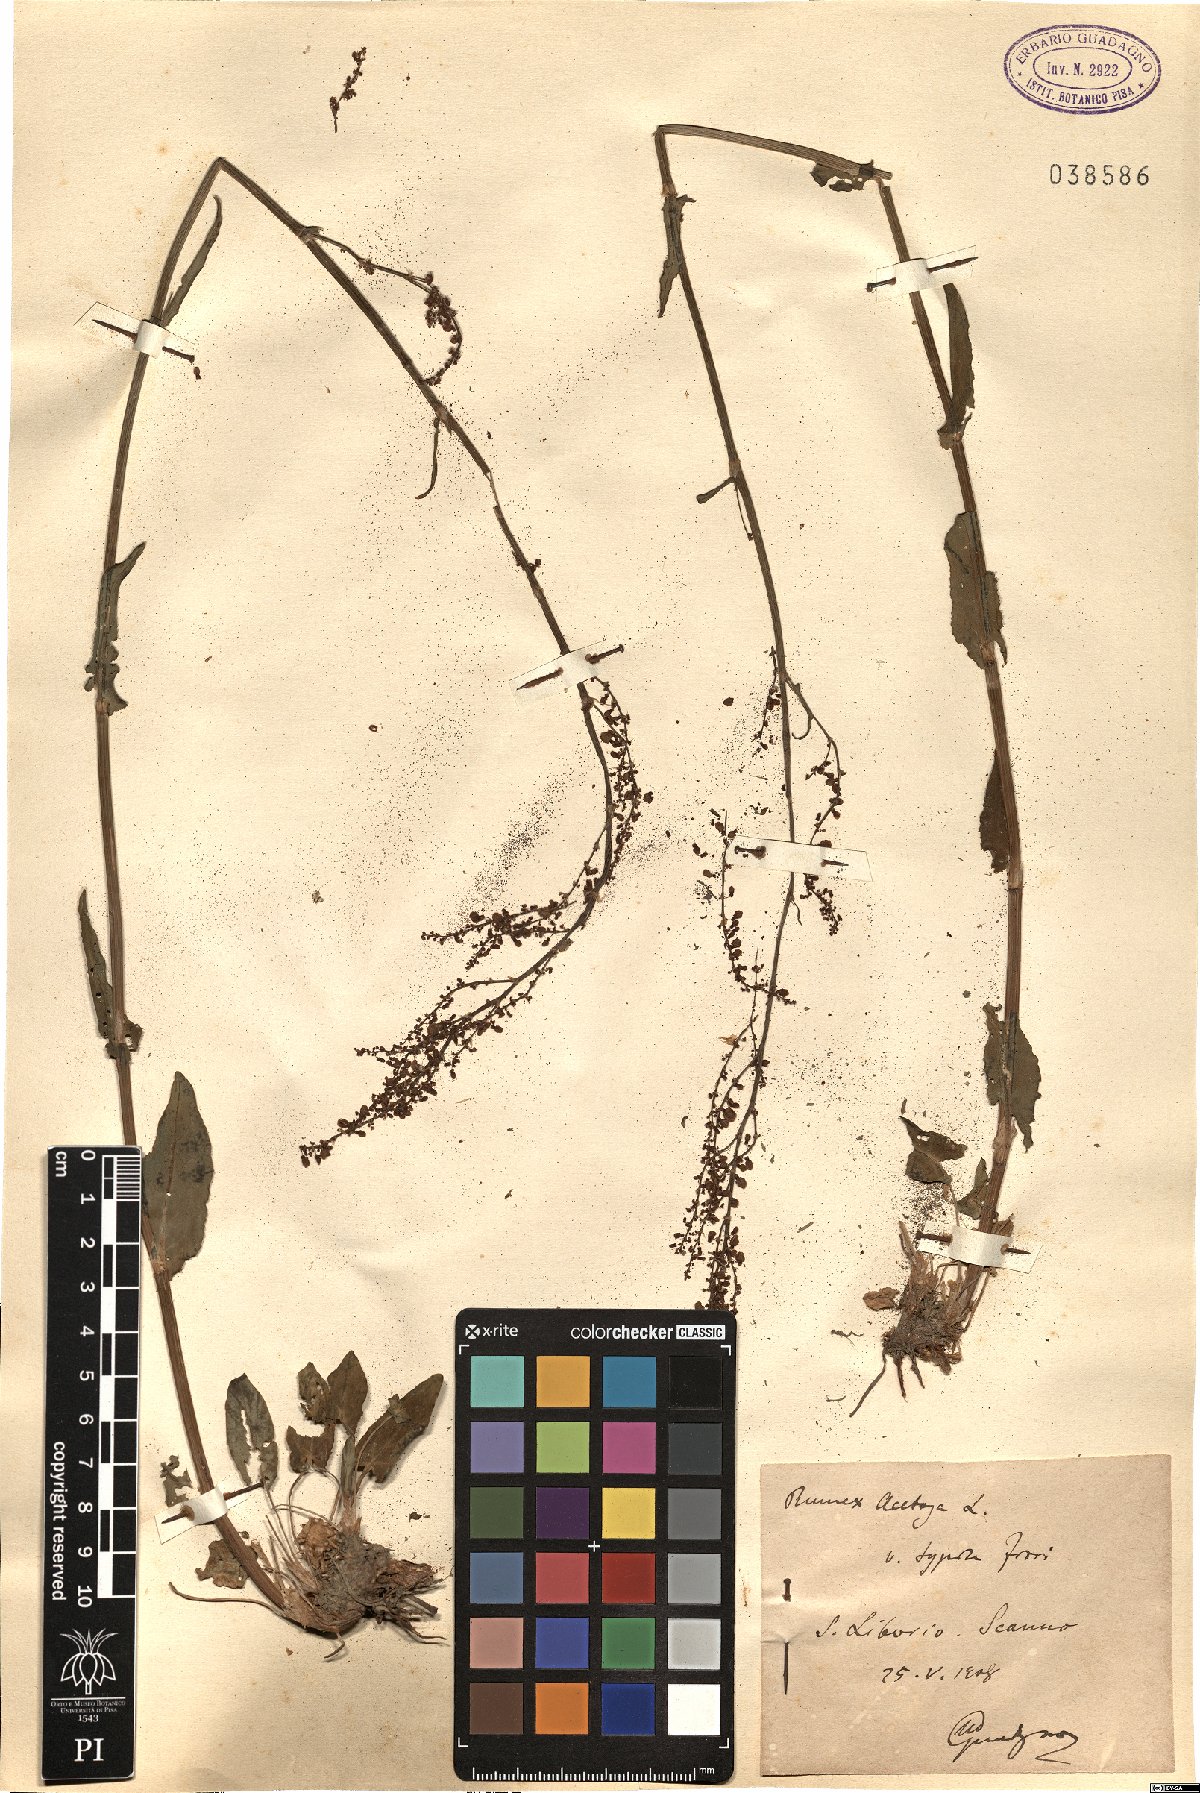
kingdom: Plantae
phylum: Tracheophyta
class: Magnoliopsida
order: Caryophyllales
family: Polygonaceae
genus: Rumex
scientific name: Rumex acetosa
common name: Garden sorrel
